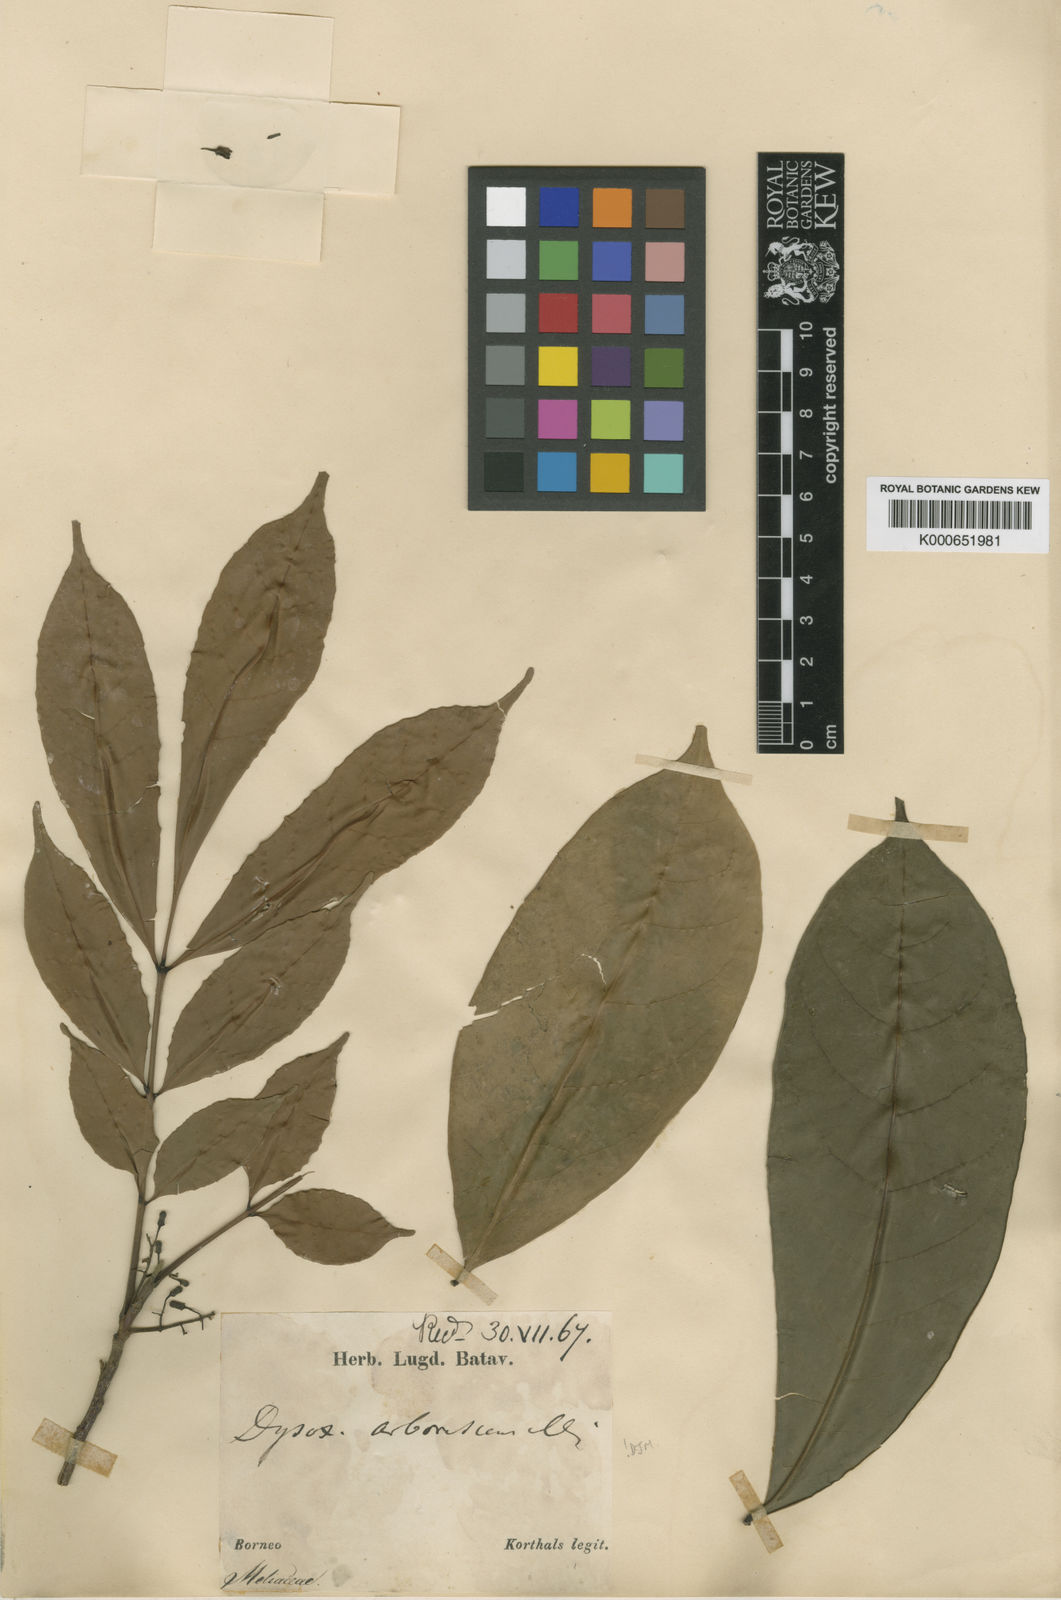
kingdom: Plantae
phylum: Tracheophyta
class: Magnoliopsida
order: Sapindales
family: Meliaceae
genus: Goniocheton
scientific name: Goniocheton arborescens
